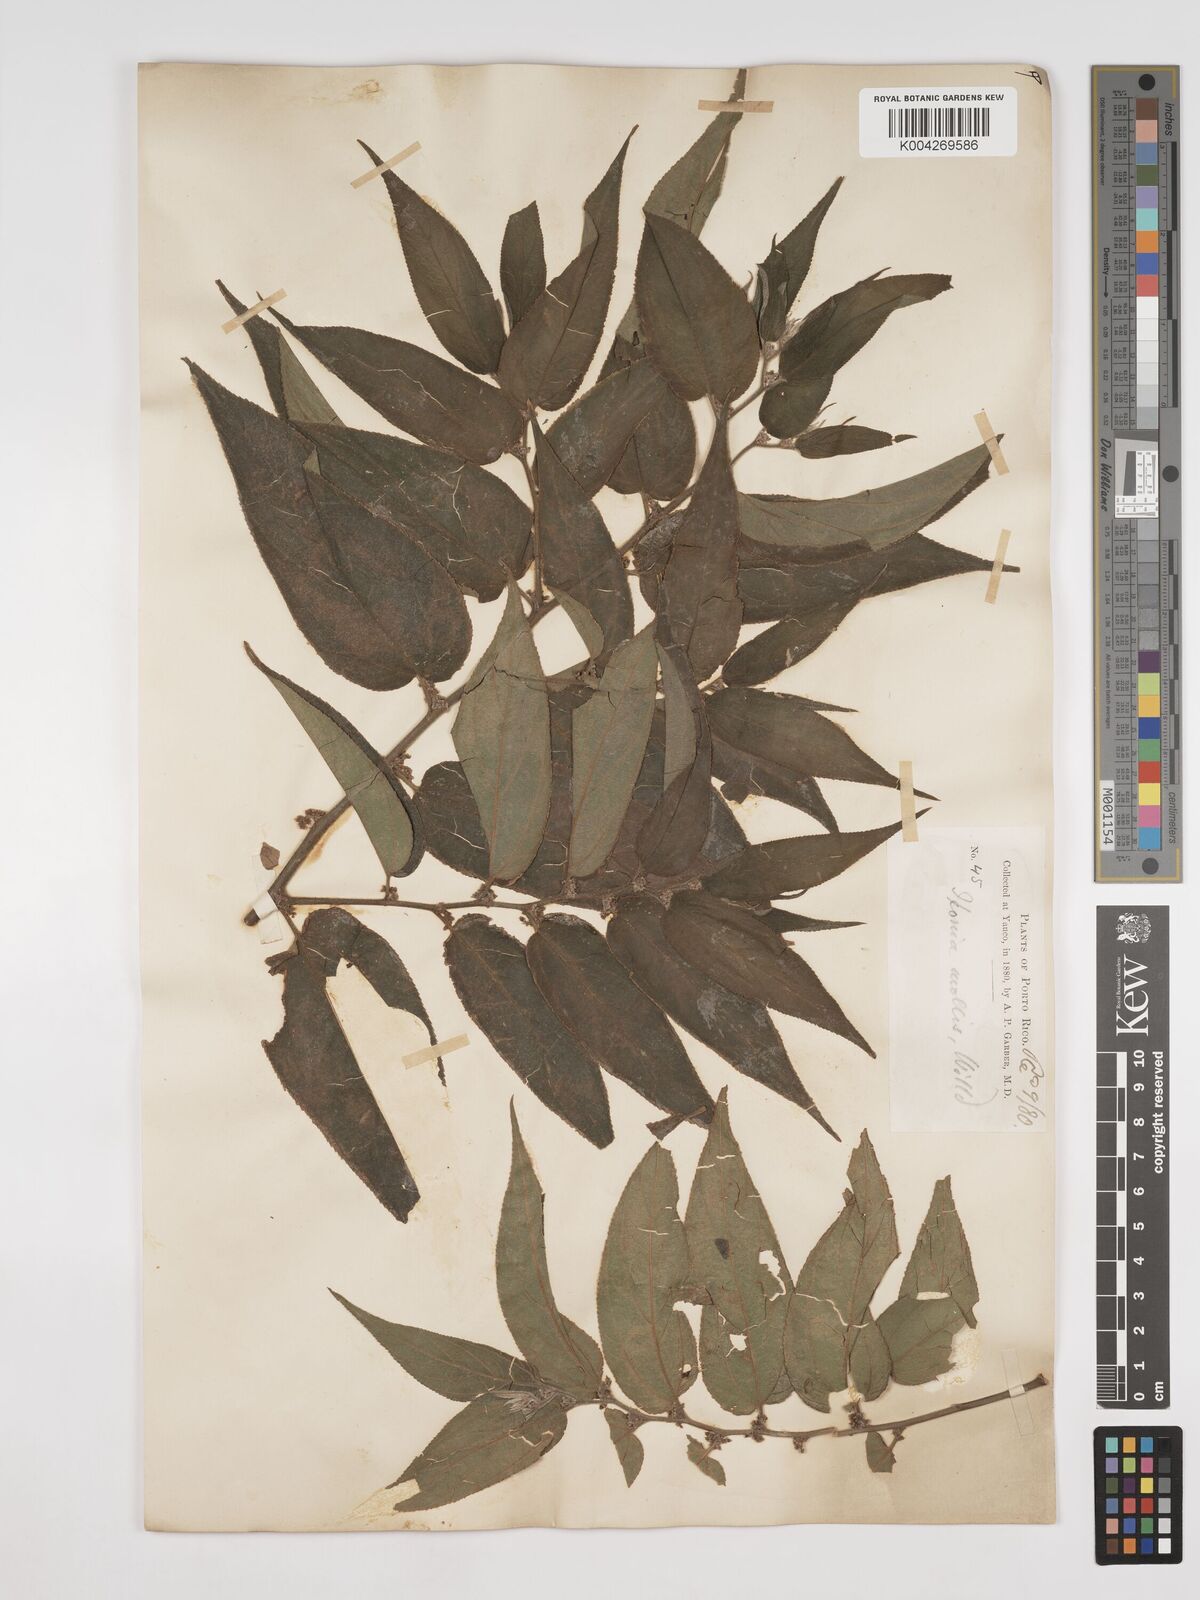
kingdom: Plantae
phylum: Tracheophyta
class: Magnoliopsida
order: Rosales
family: Cannabaceae
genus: Trema
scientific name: Trema micranthum
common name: Jamaican nettletree
